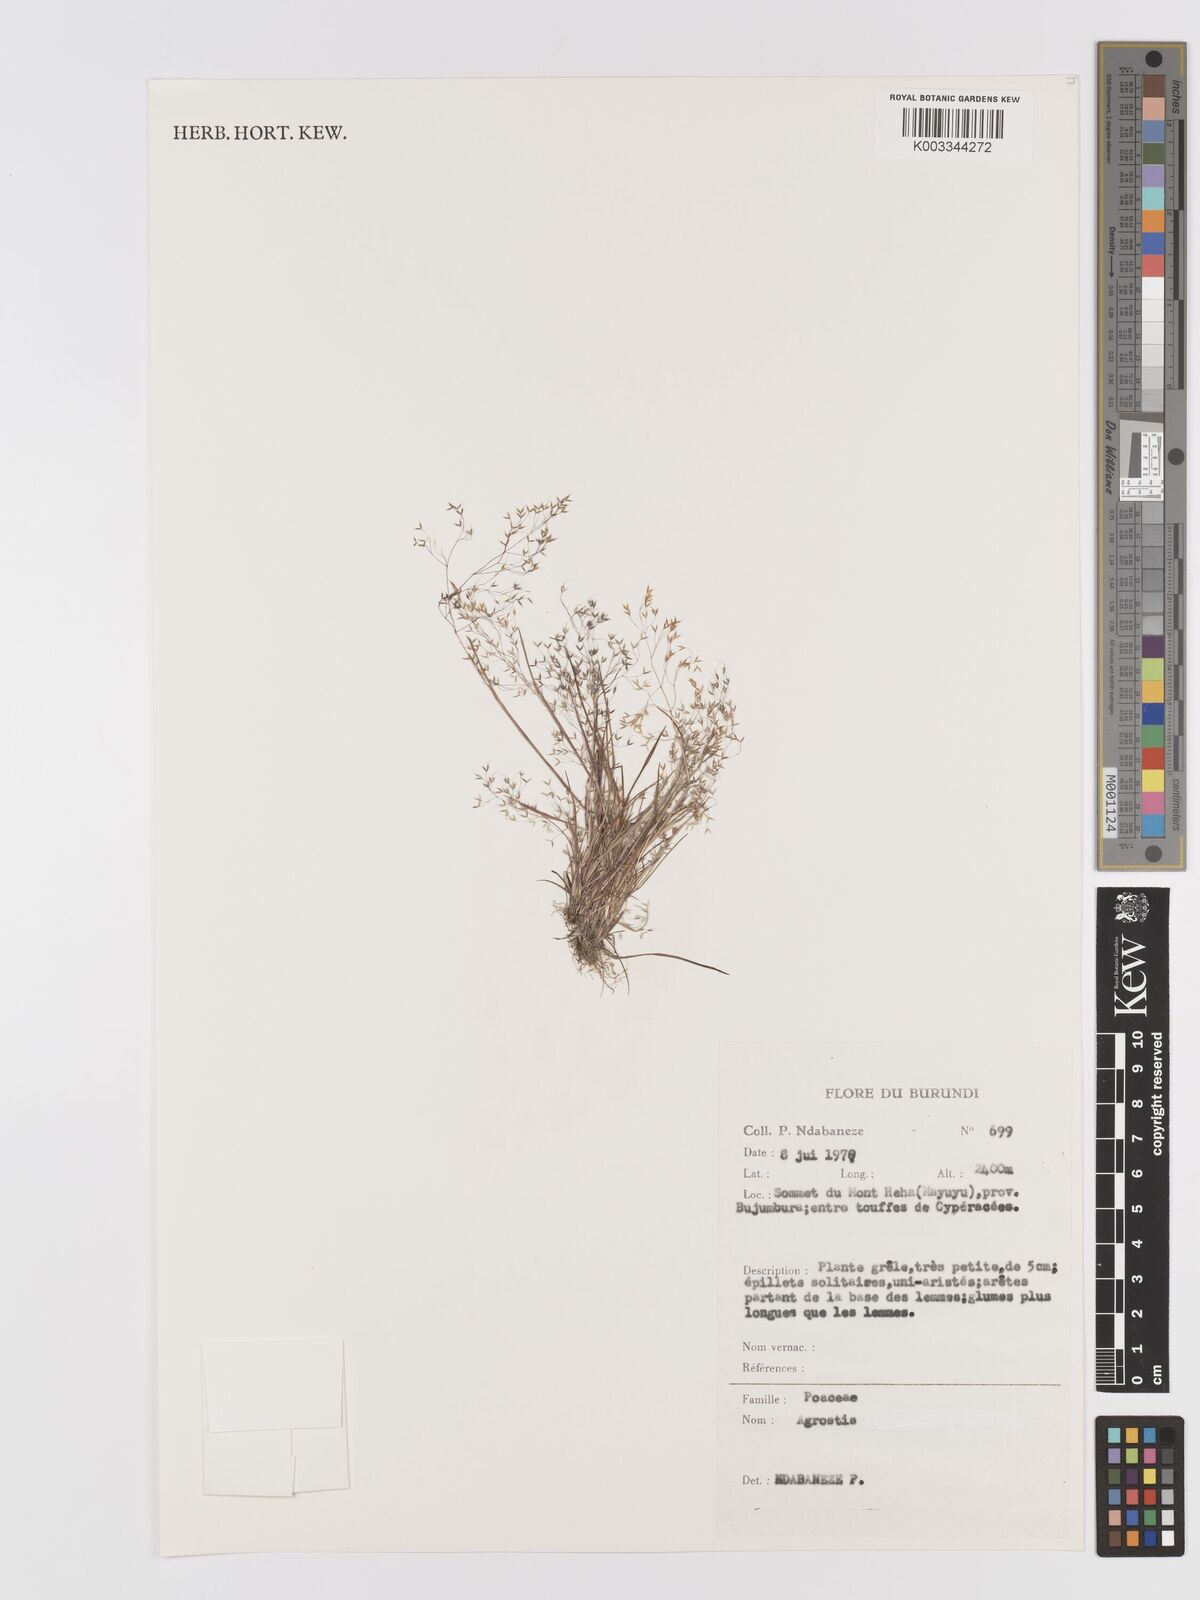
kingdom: Plantae
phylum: Tracheophyta
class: Liliopsida
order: Poales
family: Poaceae
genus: Agrostis
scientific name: Agrostis
